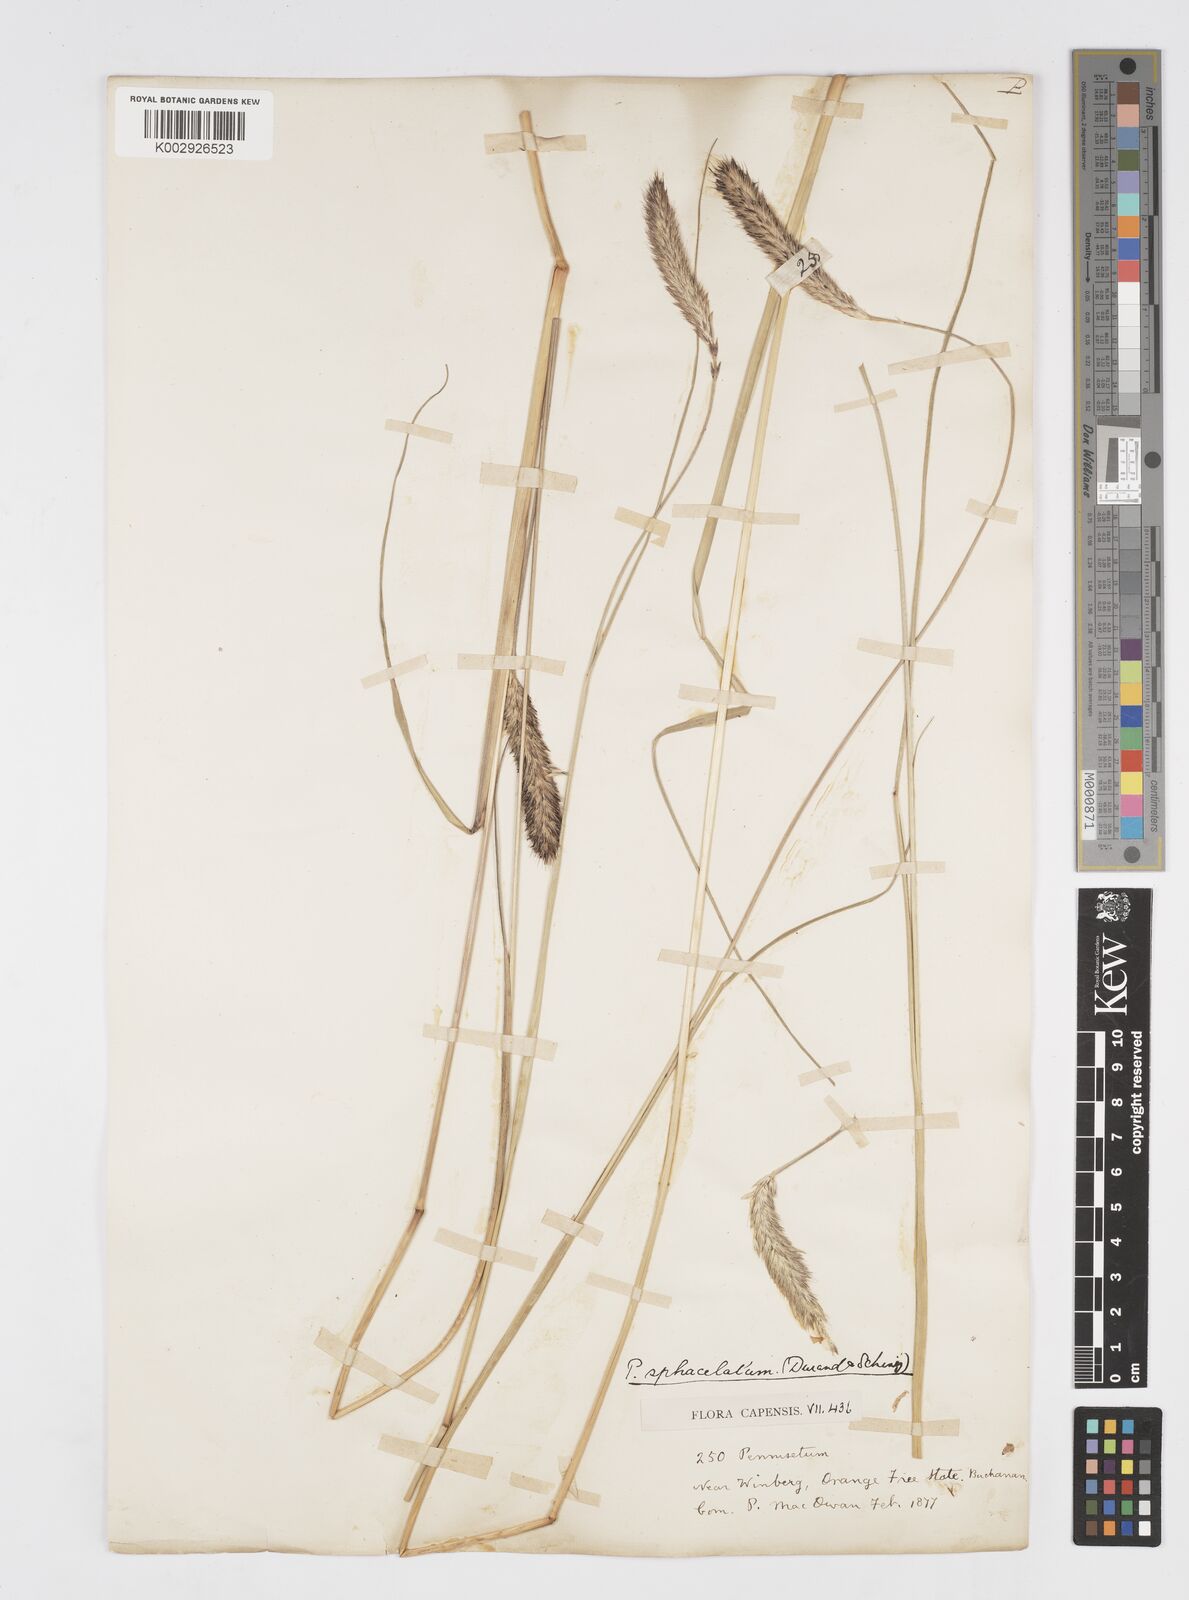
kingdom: Plantae
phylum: Tracheophyta
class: Liliopsida
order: Poales
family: Poaceae
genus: Cenchrus
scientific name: Cenchrus sphacelatus
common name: Bulgras
